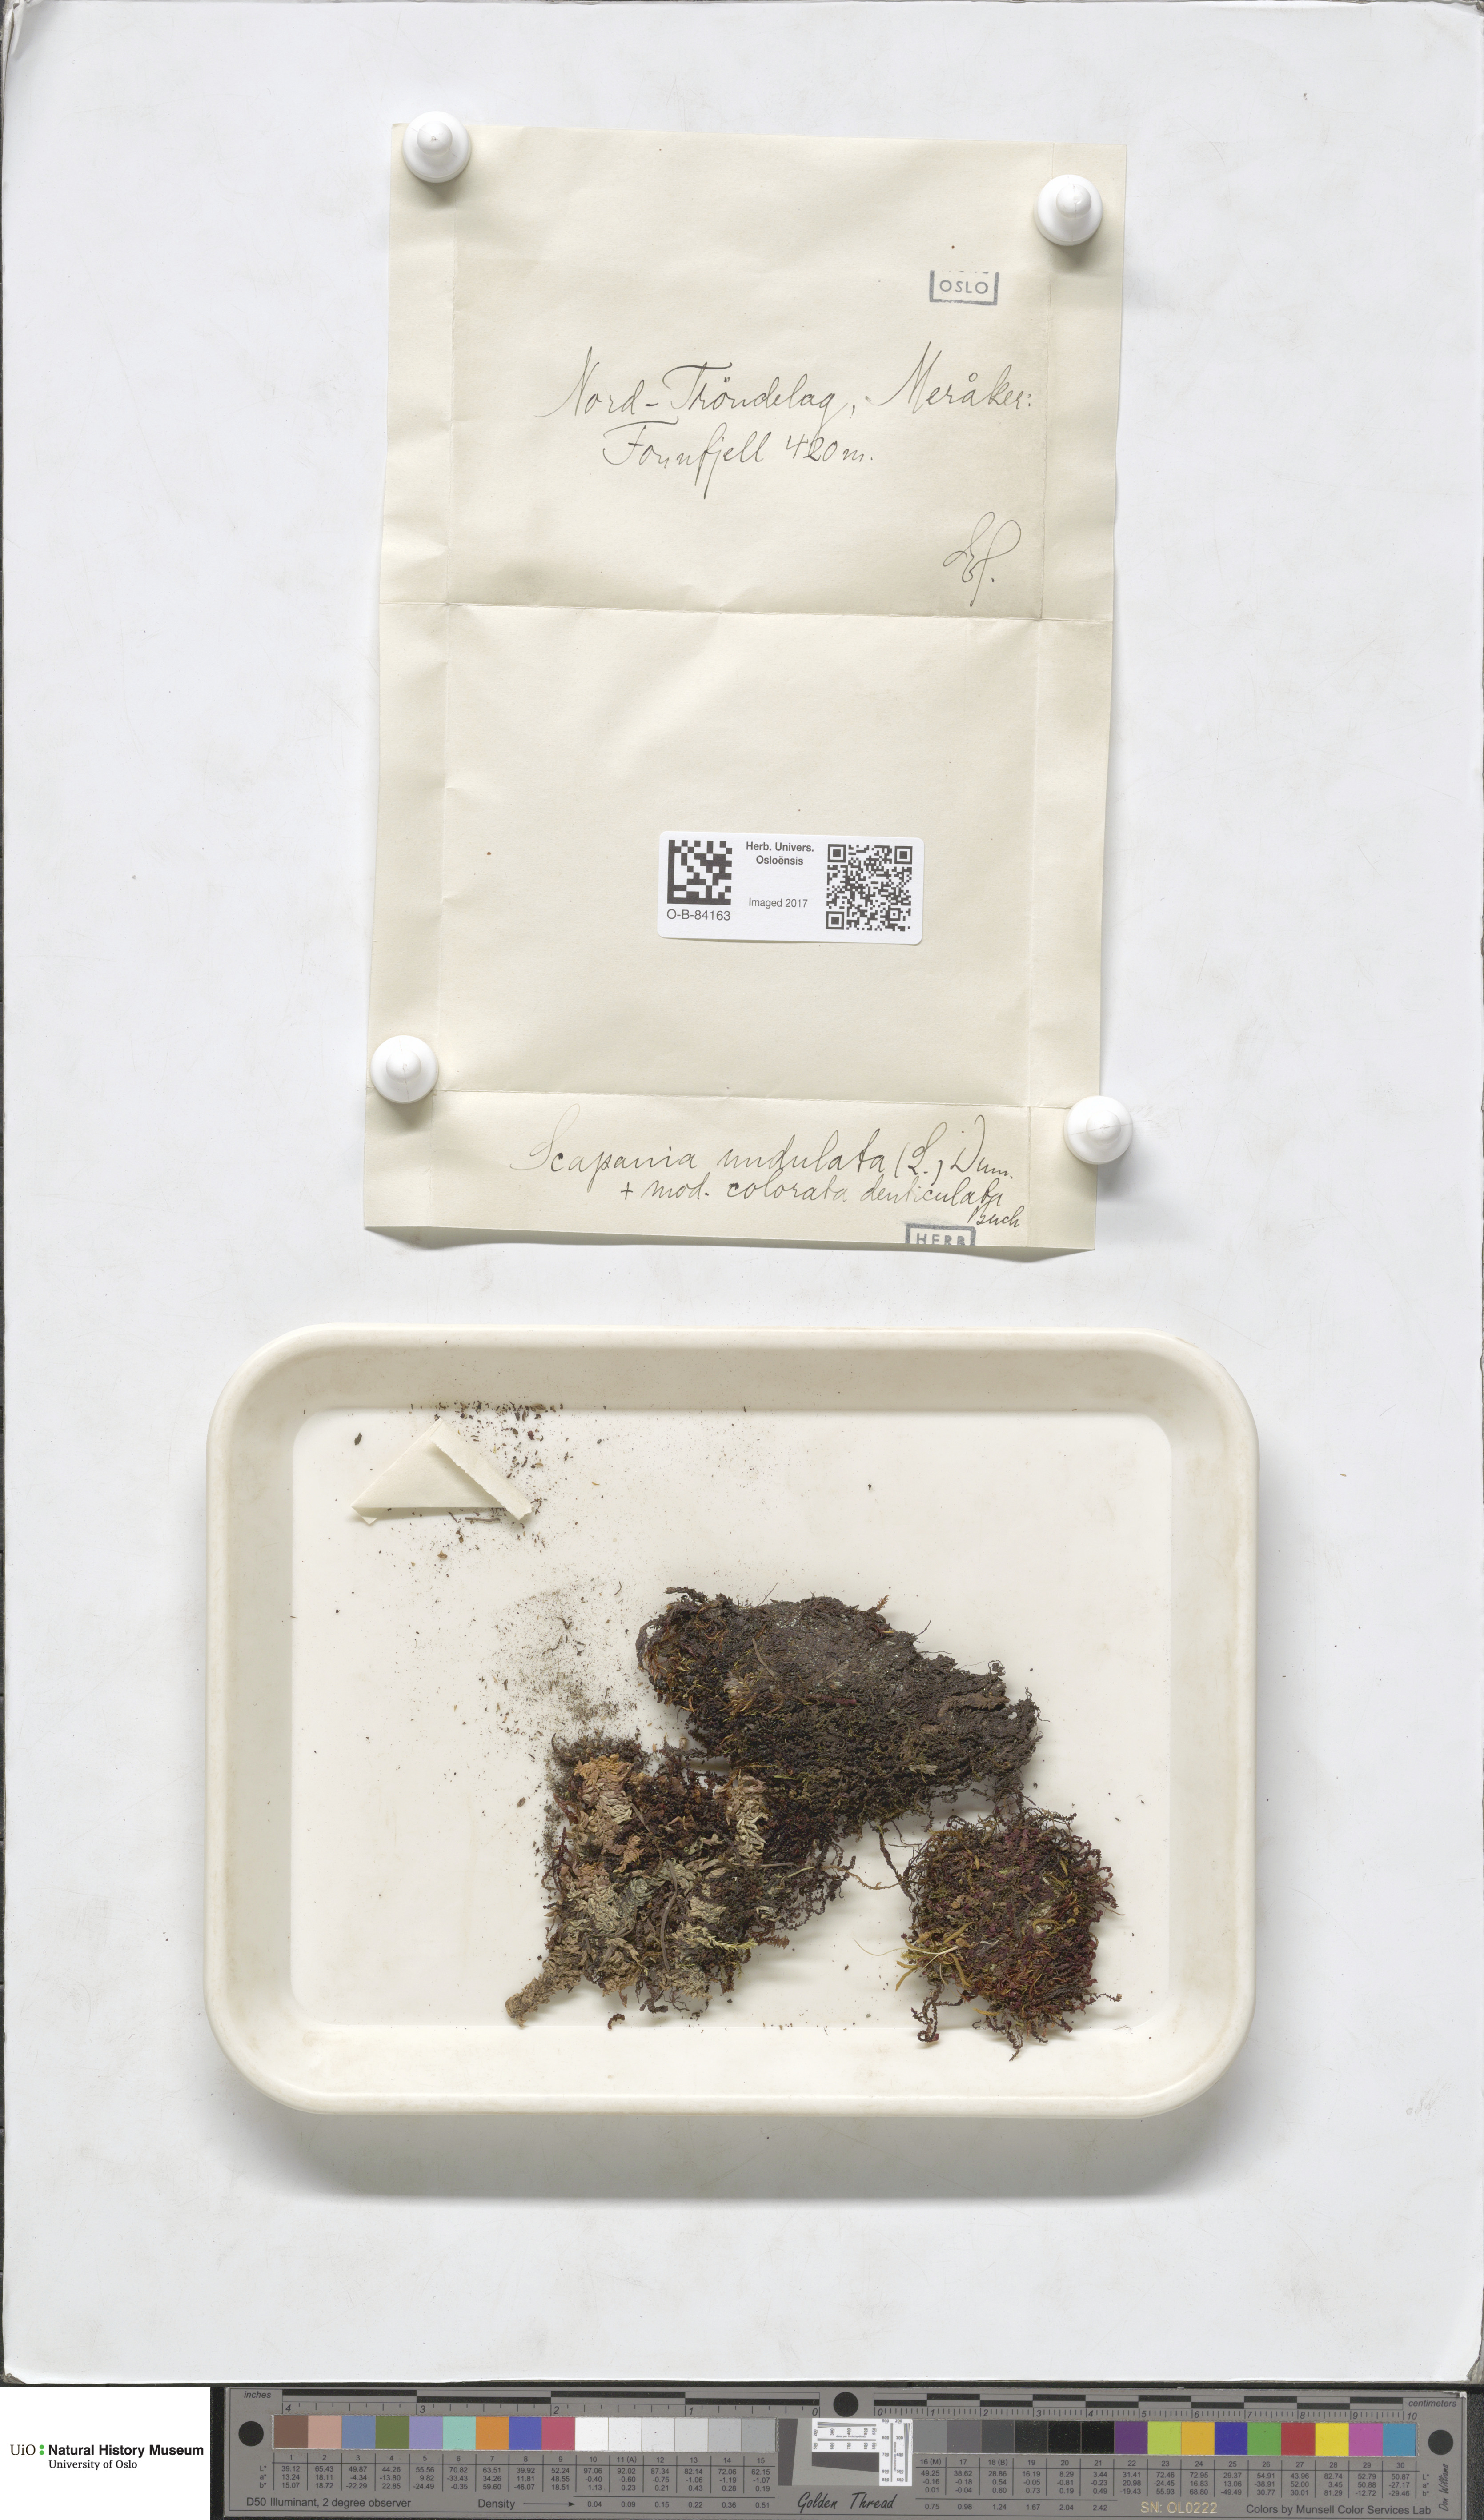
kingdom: Plantae
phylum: Marchantiophyta
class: Jungermanniopsida
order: Jungermanniales
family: Scapaniaceae
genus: Scapania
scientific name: Scapania undulata
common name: Water earwort
